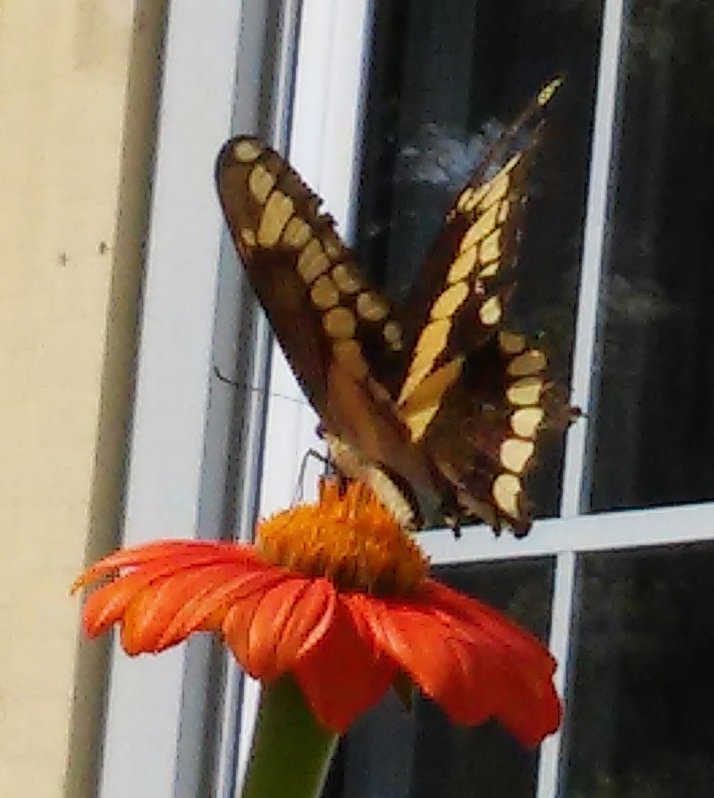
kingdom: Animalia
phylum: Arthropoda
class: Insecta
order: Lepidoptera
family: Papilionidae
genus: Papilio
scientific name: Papilio cresphontes
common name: Eastern Giant Swallowtail
